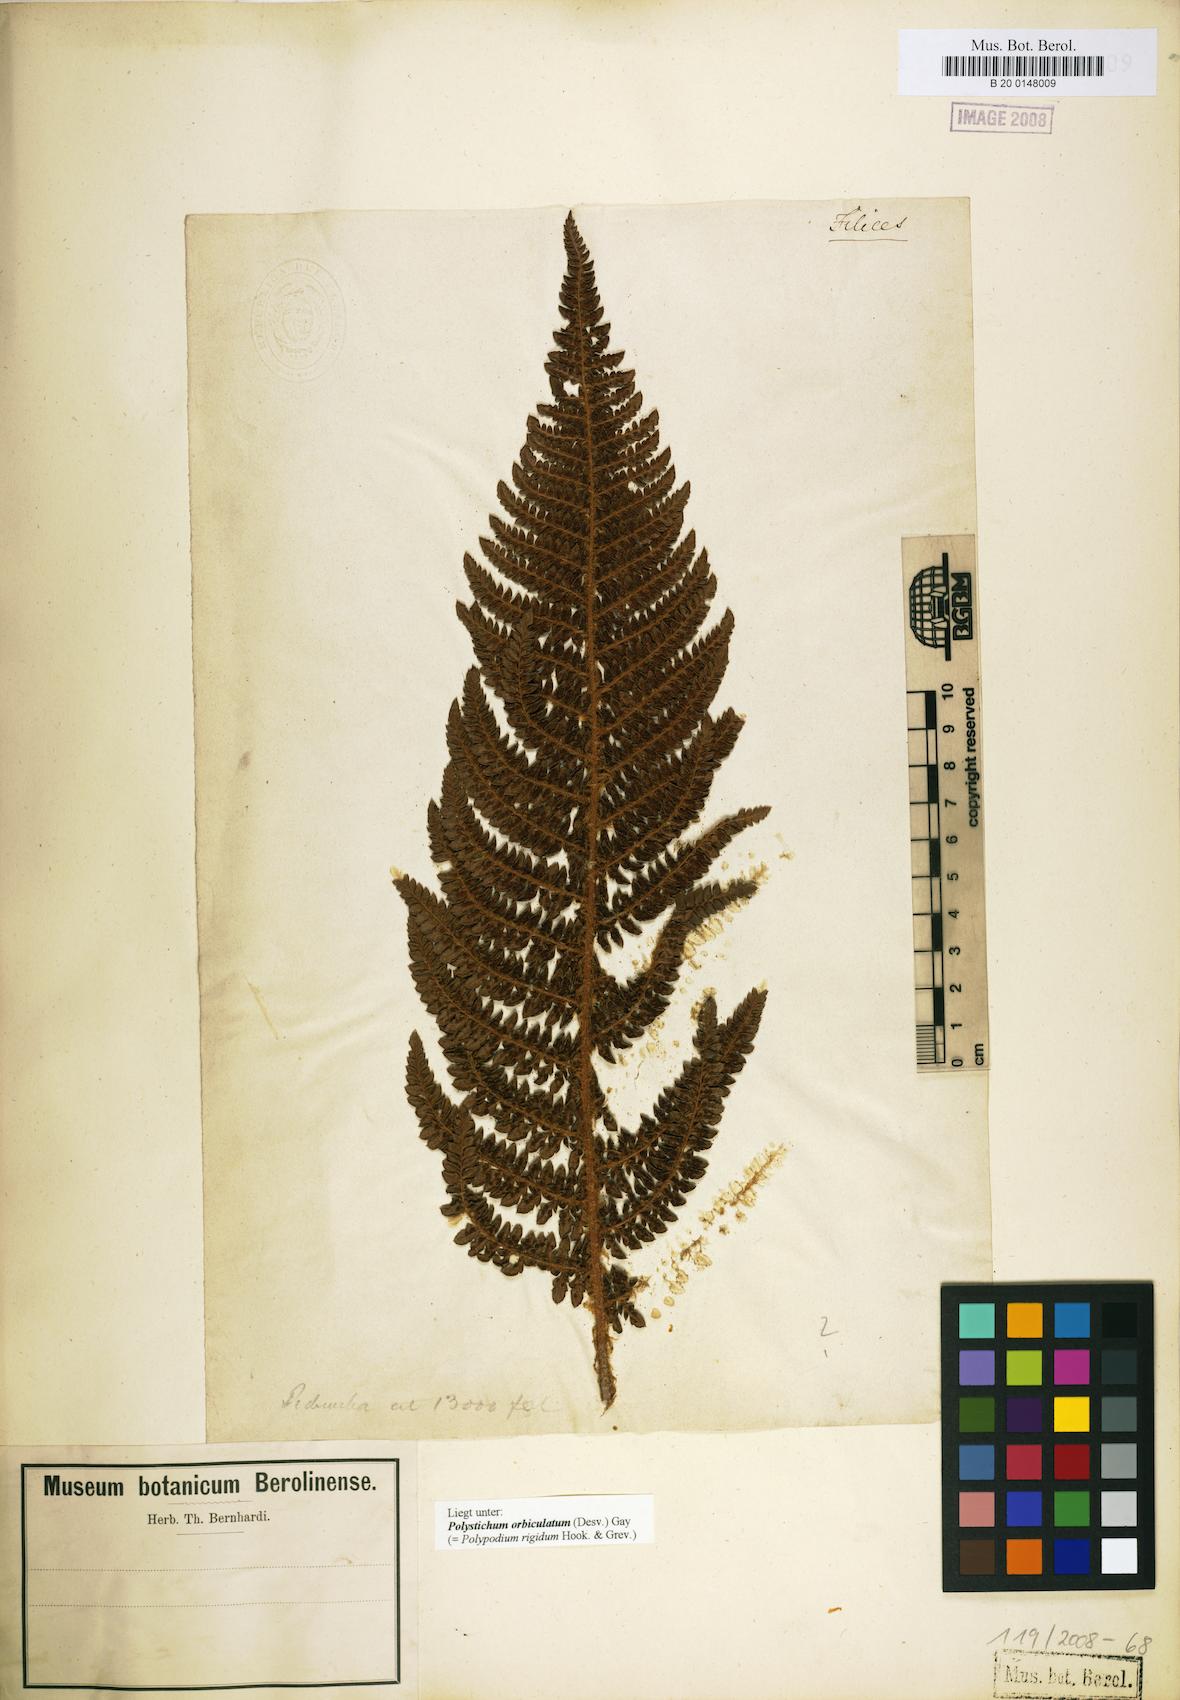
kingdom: Plantae
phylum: Tracheophyta
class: Polypodiopsida
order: Polypodiales
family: Dryopteridaceae
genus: Polystichum
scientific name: Polystichum orbiculatum
